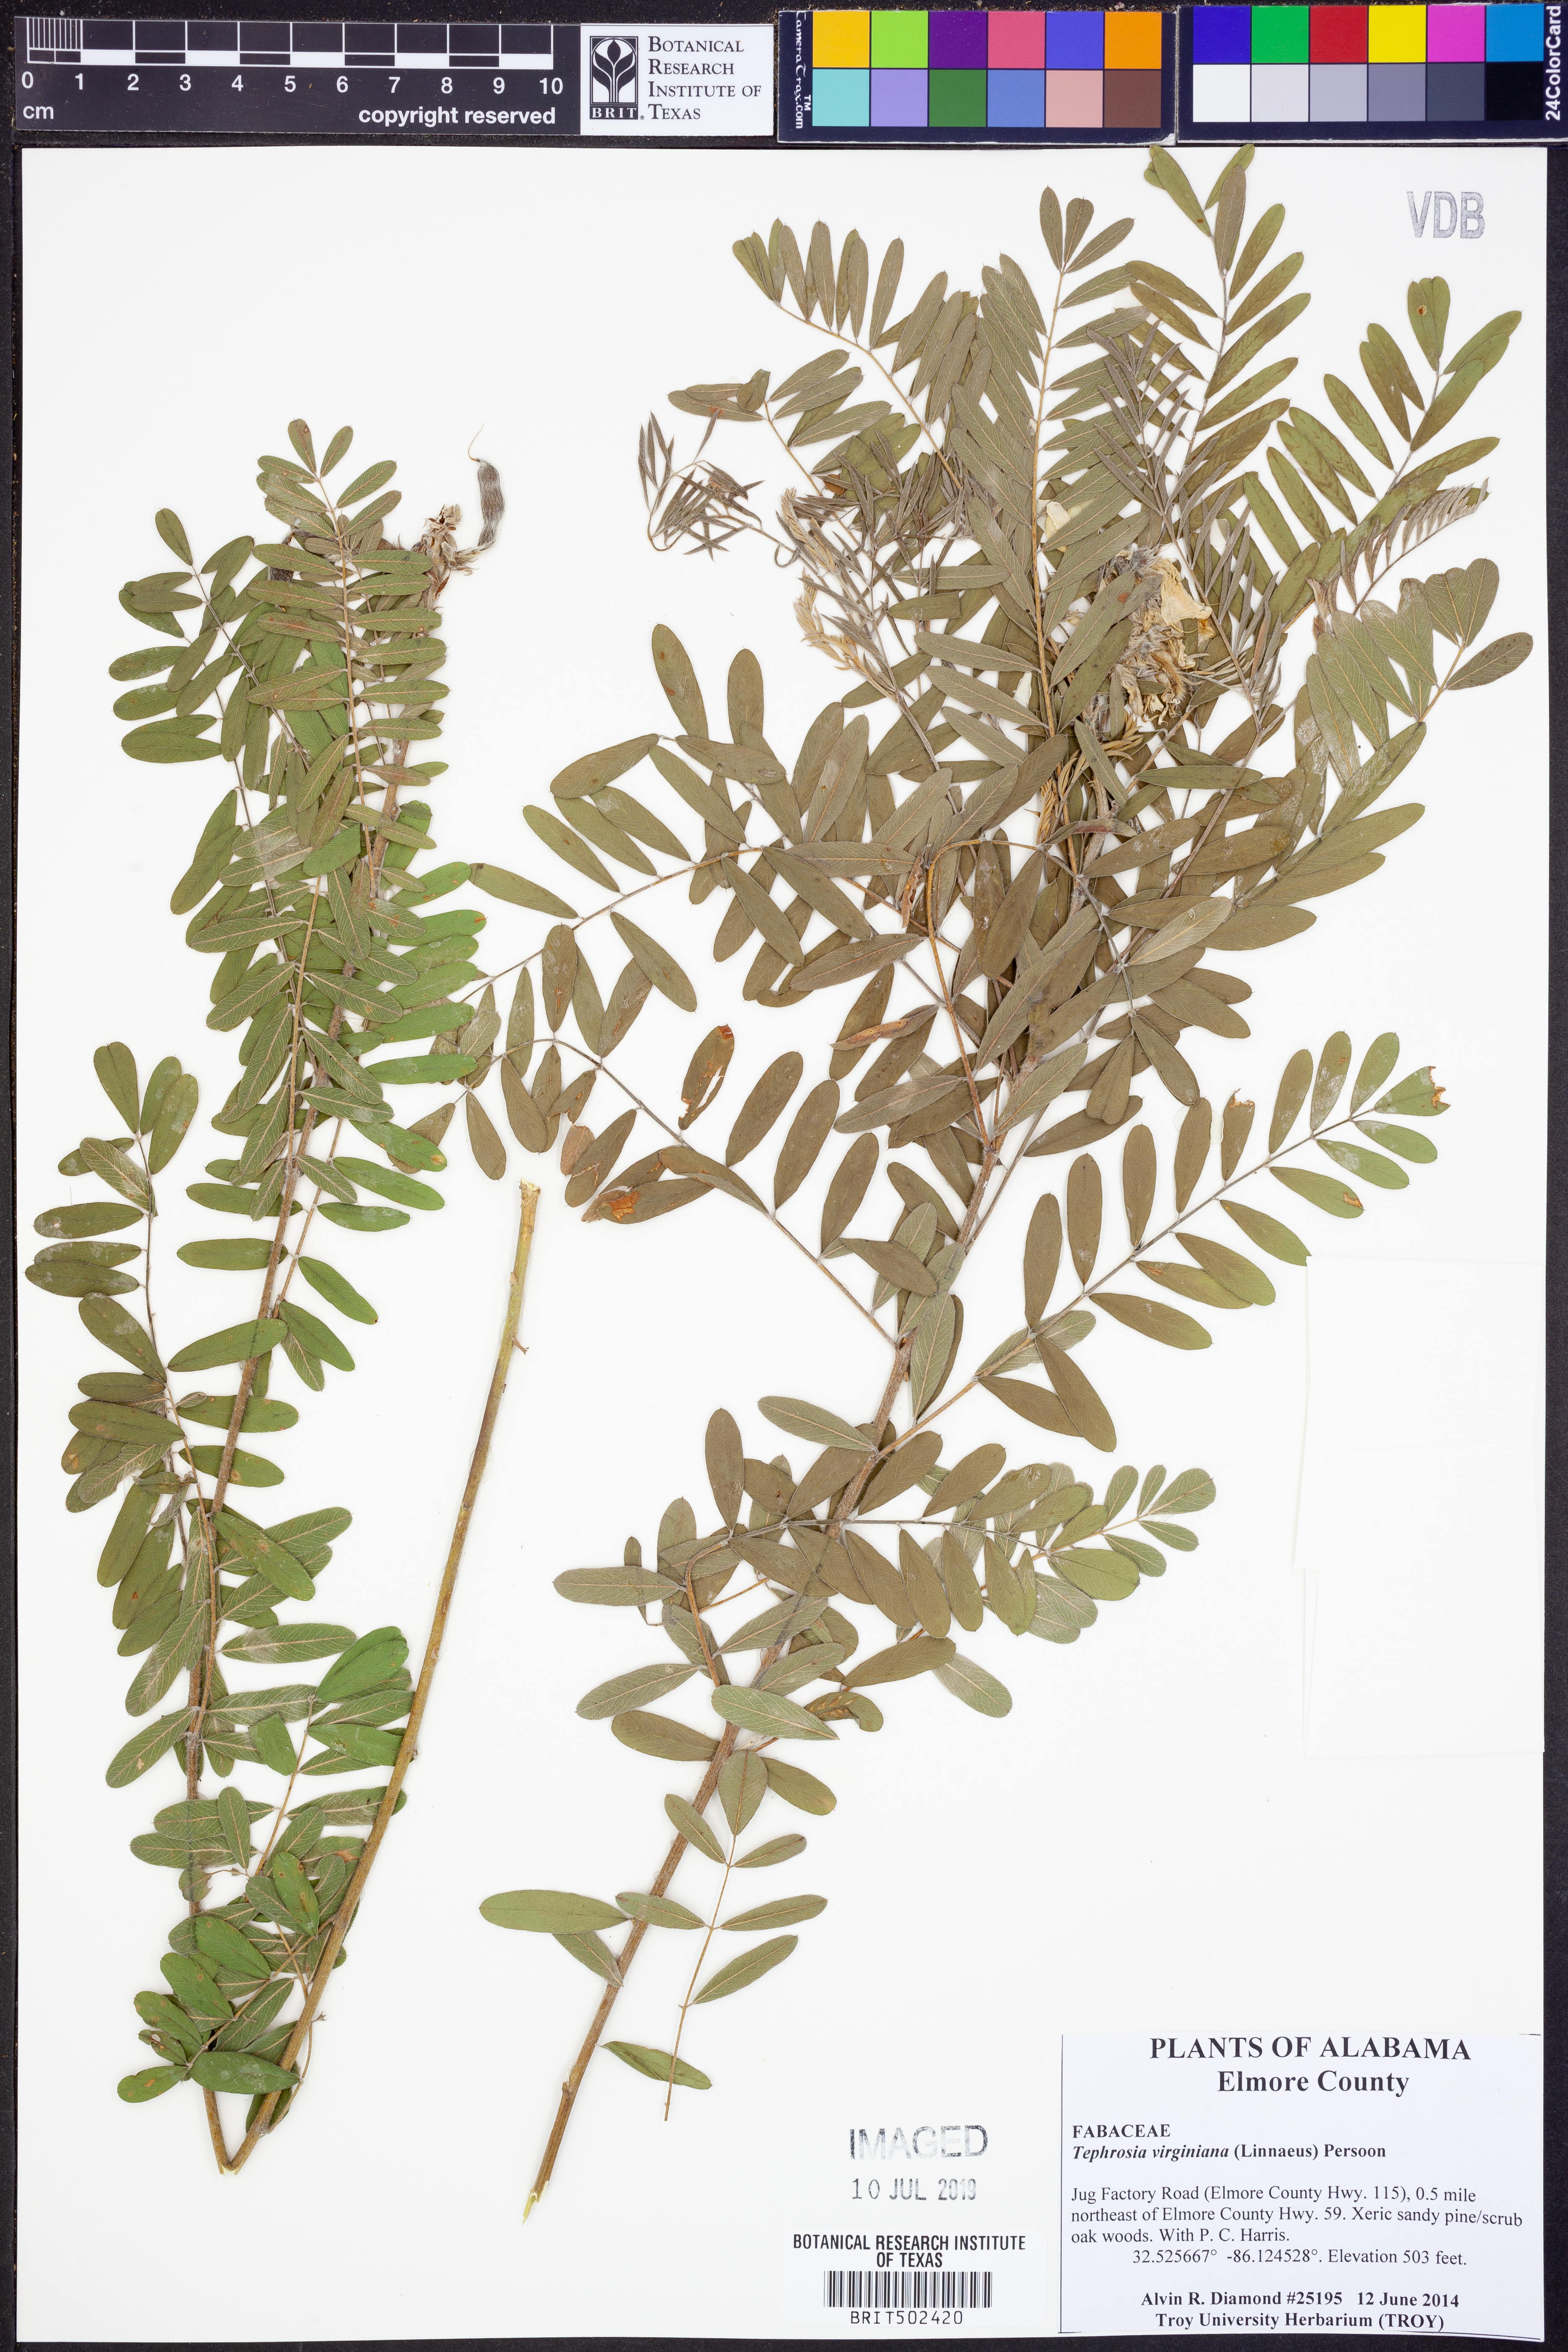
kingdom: Plantae
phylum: Tracheophyta
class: Magnoliopsida
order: Fabales
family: Fabaceae
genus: Tephrosia
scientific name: Tephrosia virginiana
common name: Rabbit-pea
